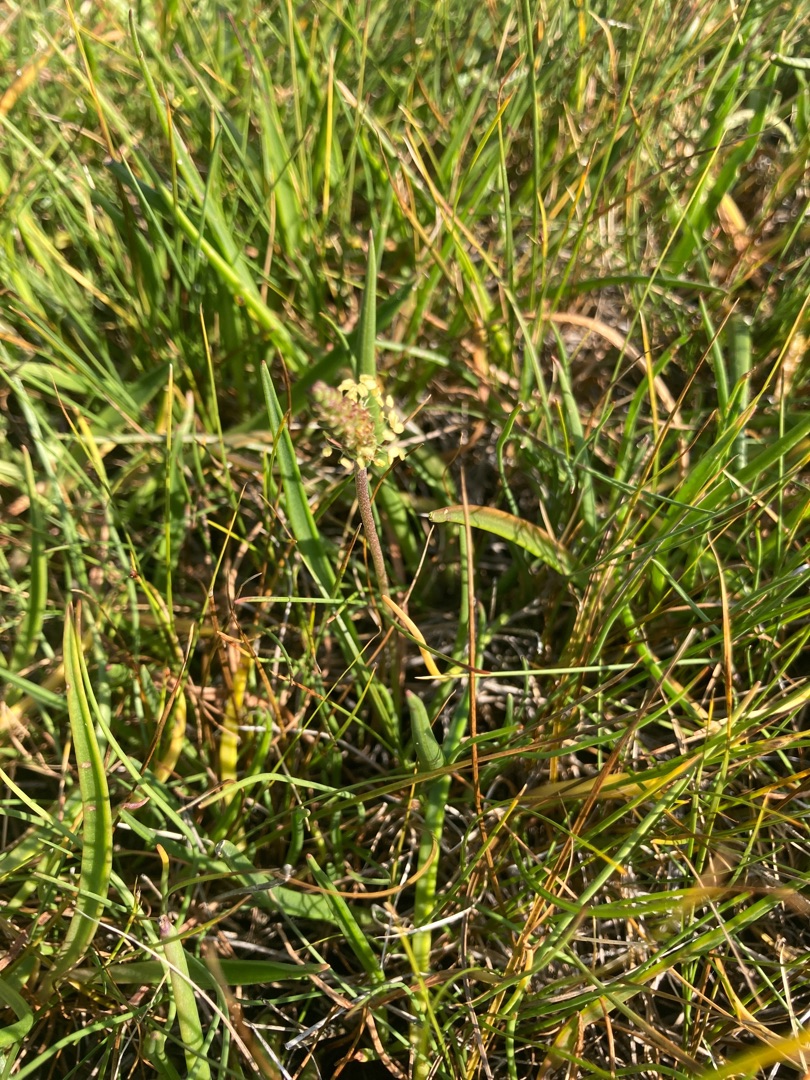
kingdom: Plantae
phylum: Tracheophyta
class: Magnoliopsida
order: Lamiales
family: Plantaginaceae
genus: Plantago
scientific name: Plantago maritima
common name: Strand-vejbred
